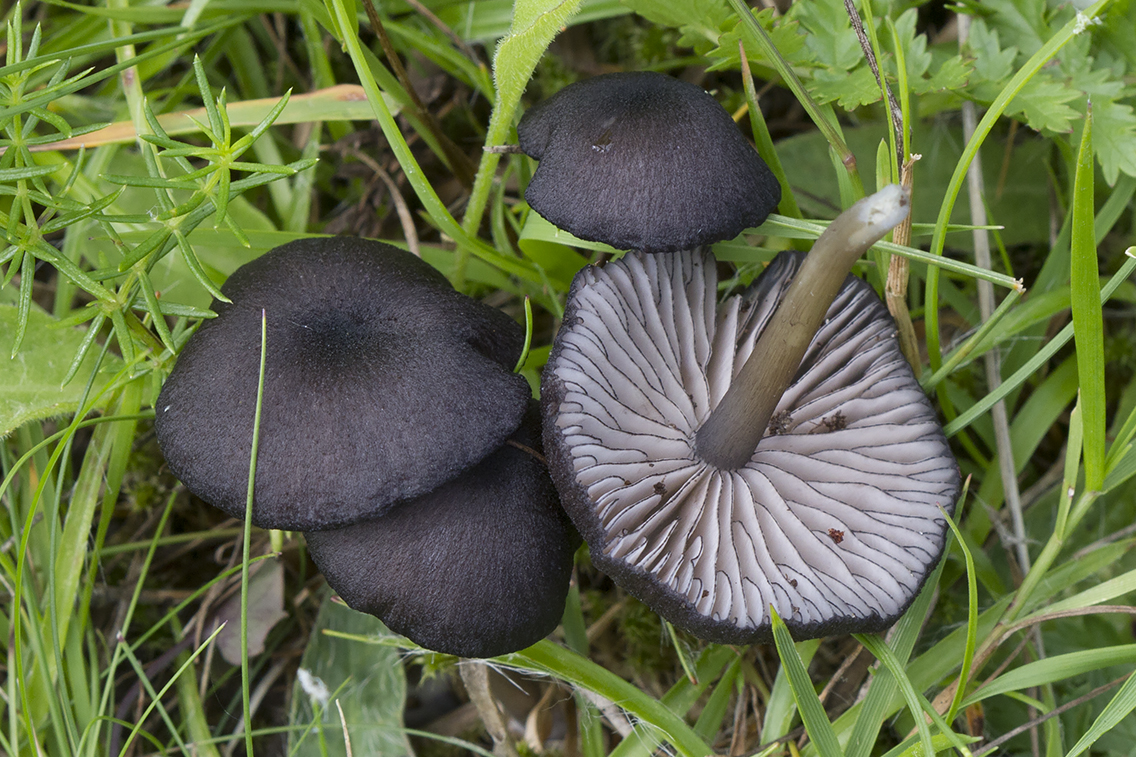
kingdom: Fungi
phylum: Basidiomycota
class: Agaricomycetes
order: Agaricales
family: Entolomataceae
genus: Entoloma
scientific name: Entoloma serrulatum
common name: savbladet rødblad
